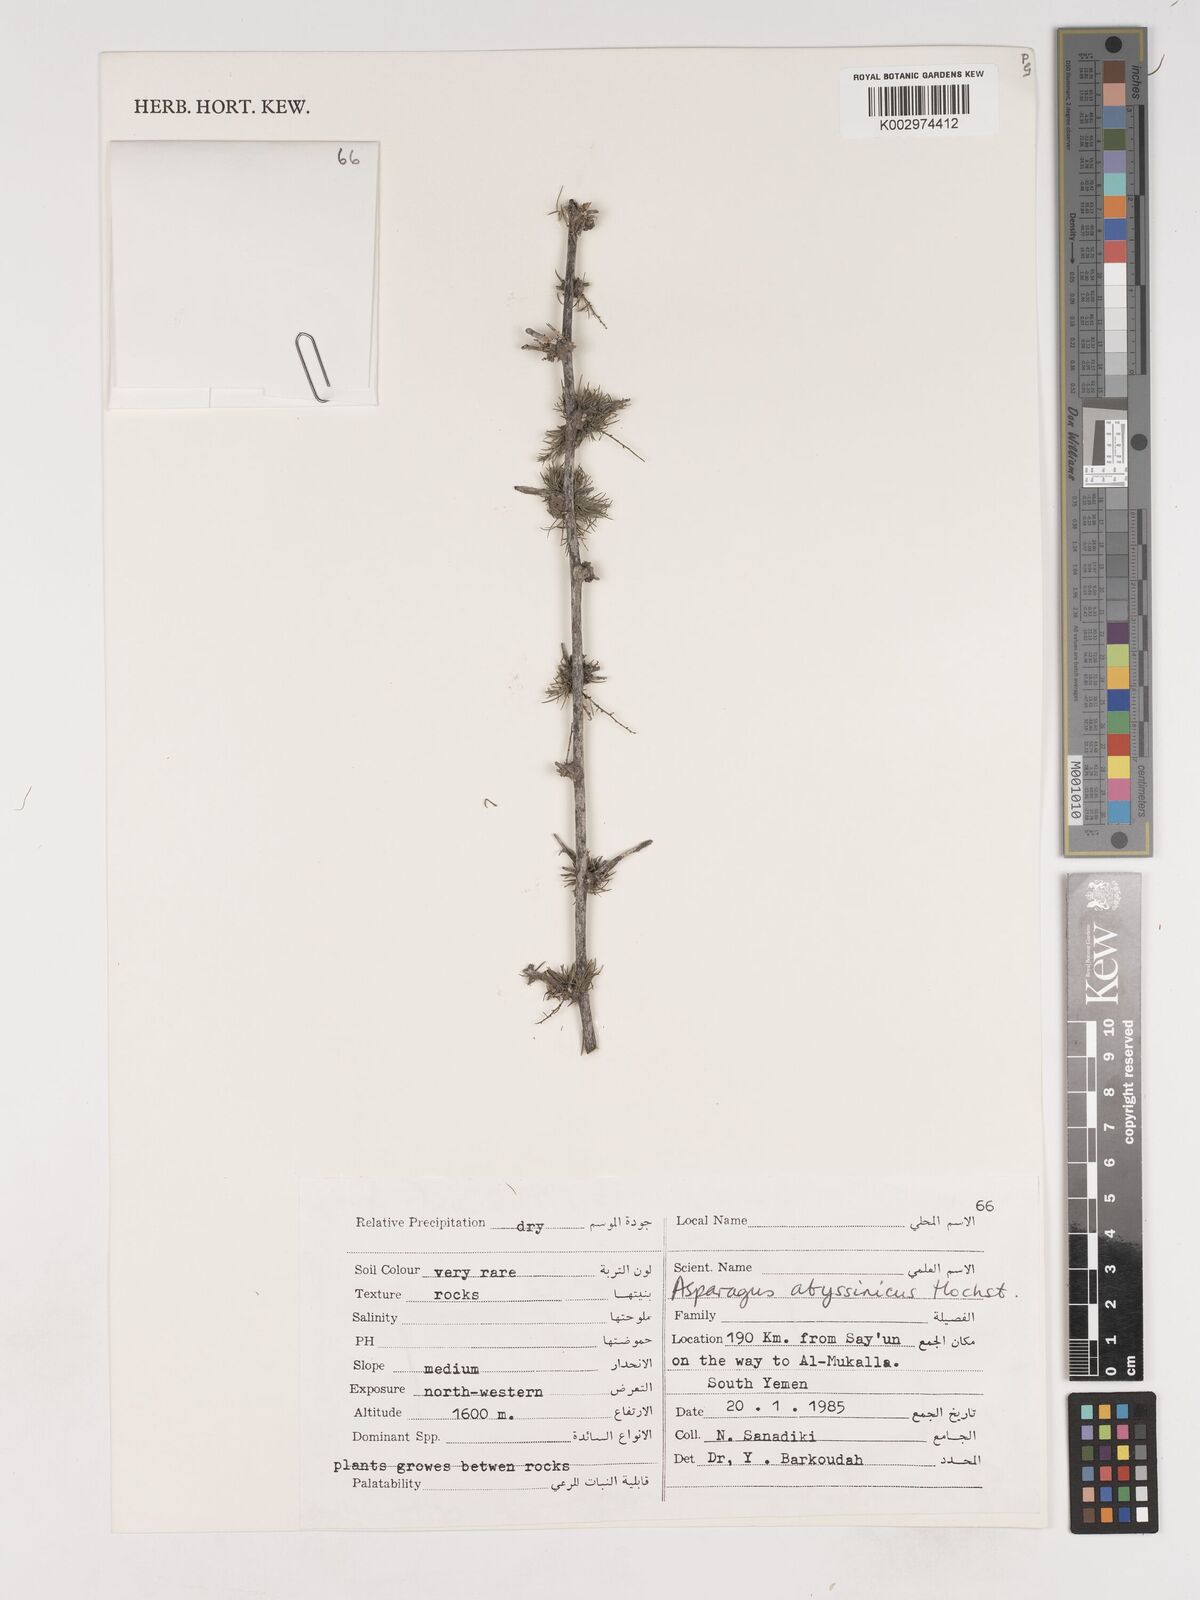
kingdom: Plantae
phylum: Tracheophyta
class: Liliopsida
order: Asparagales
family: Asparagaceae
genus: Asparagus
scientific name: Asparagus flagellaris
